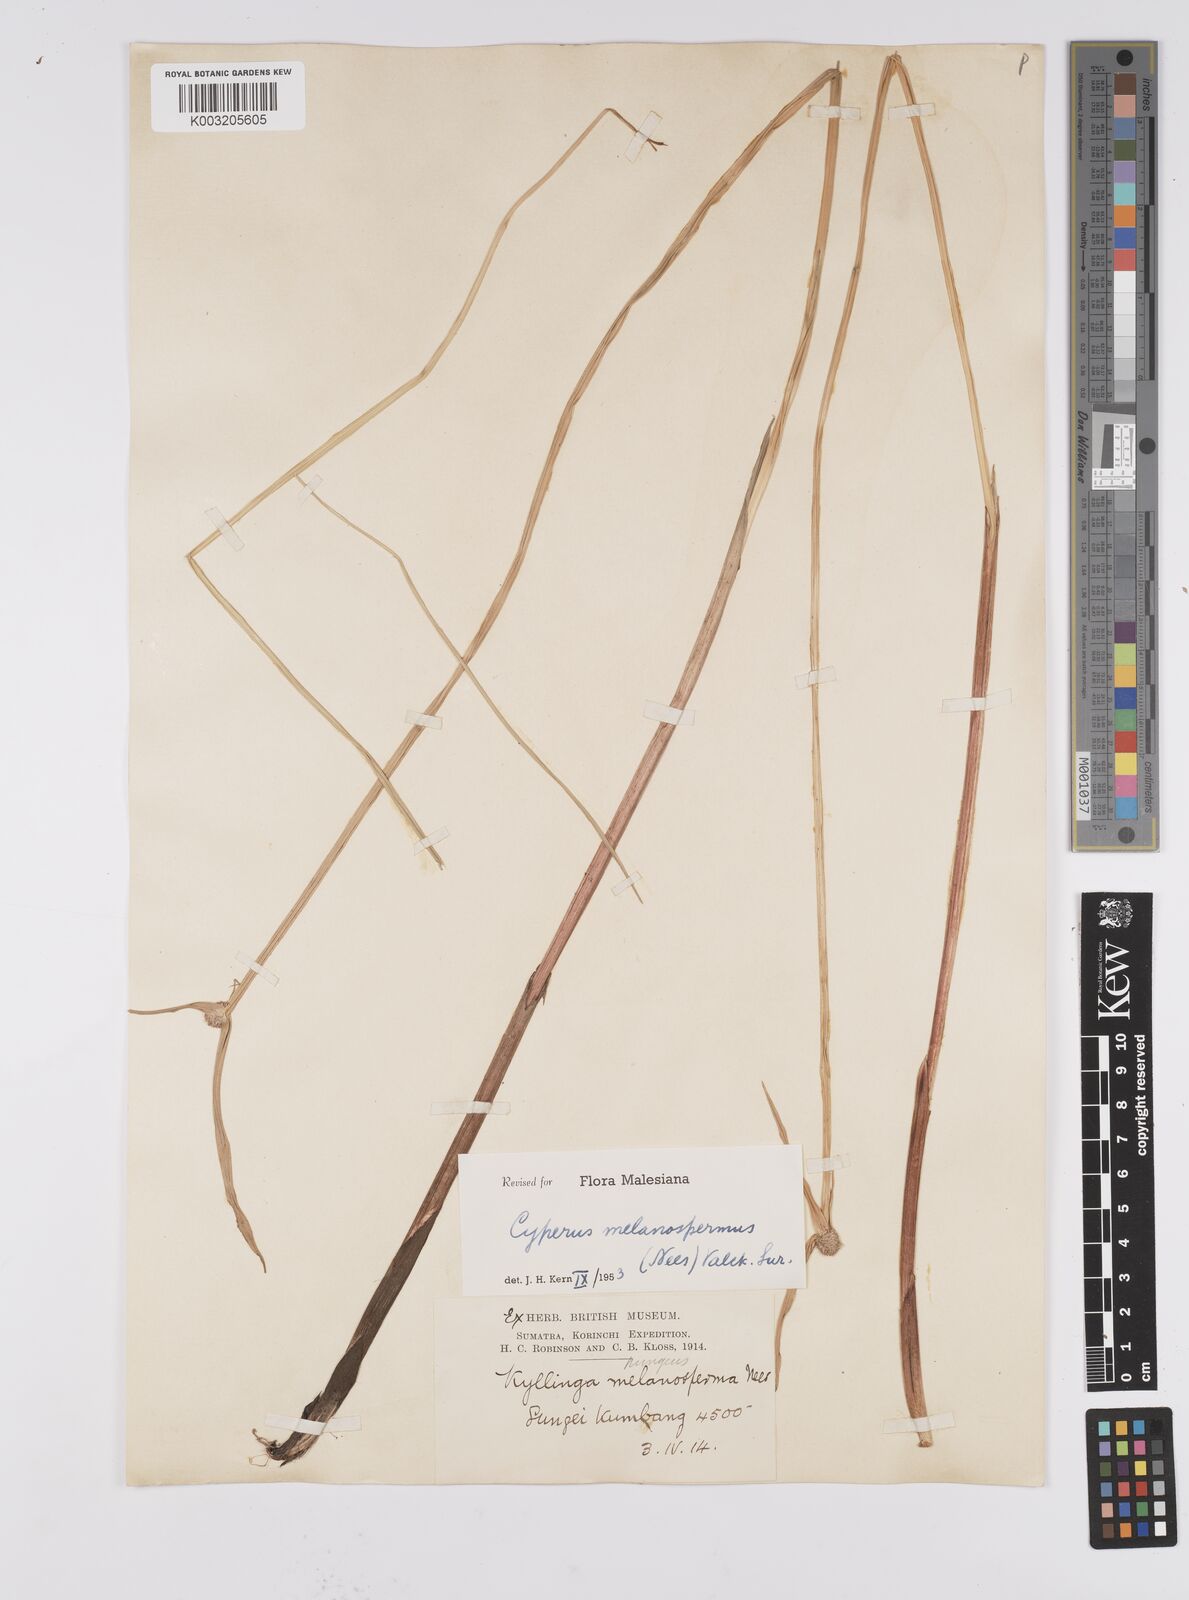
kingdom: Plantae
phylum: Tracheophyta
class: Liliopsida
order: Poales
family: Cyperaceae
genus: Cyperus
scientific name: Cyperus melanospermus
